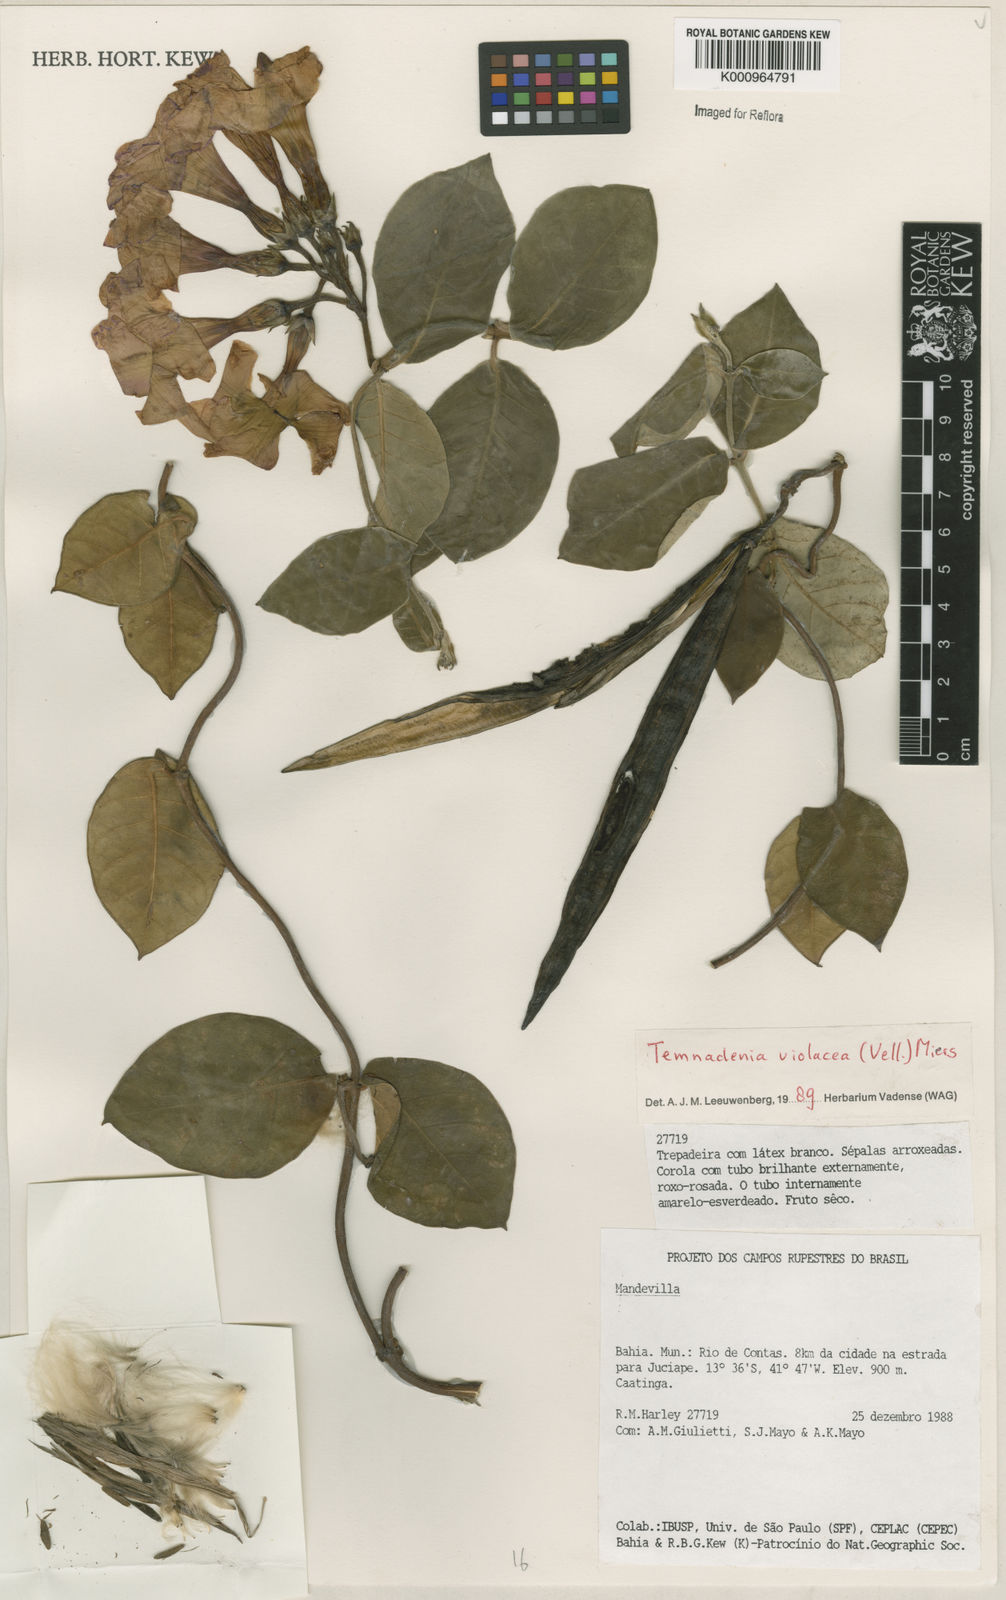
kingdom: Plantae
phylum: Tracheophyta
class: Magnoliopsida
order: Gentianales
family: Apocynaceae
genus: Temnadenia
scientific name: Temnadenia violacea
